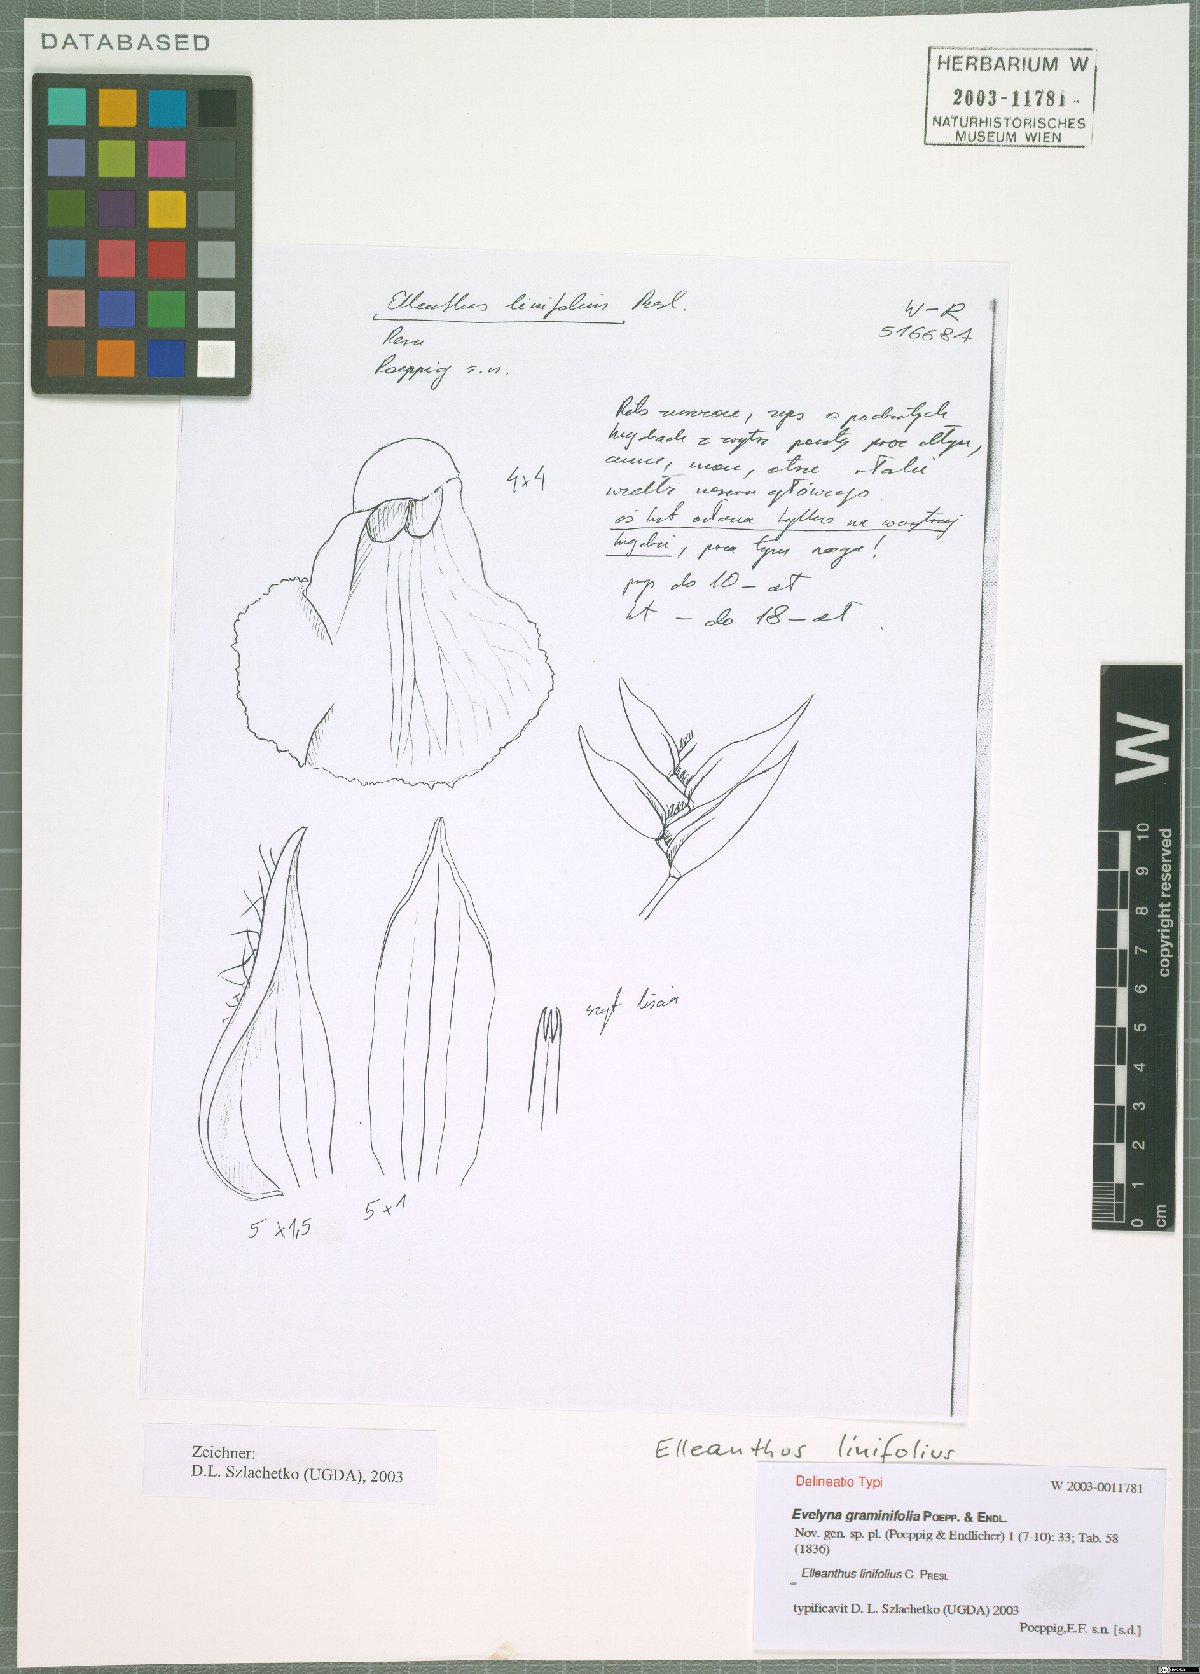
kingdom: Plantae
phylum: Tracheophyta
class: Liliopsida
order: Asparagales
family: Orchidaceae
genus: Elleanthus
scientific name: Elleanthus linifolius
